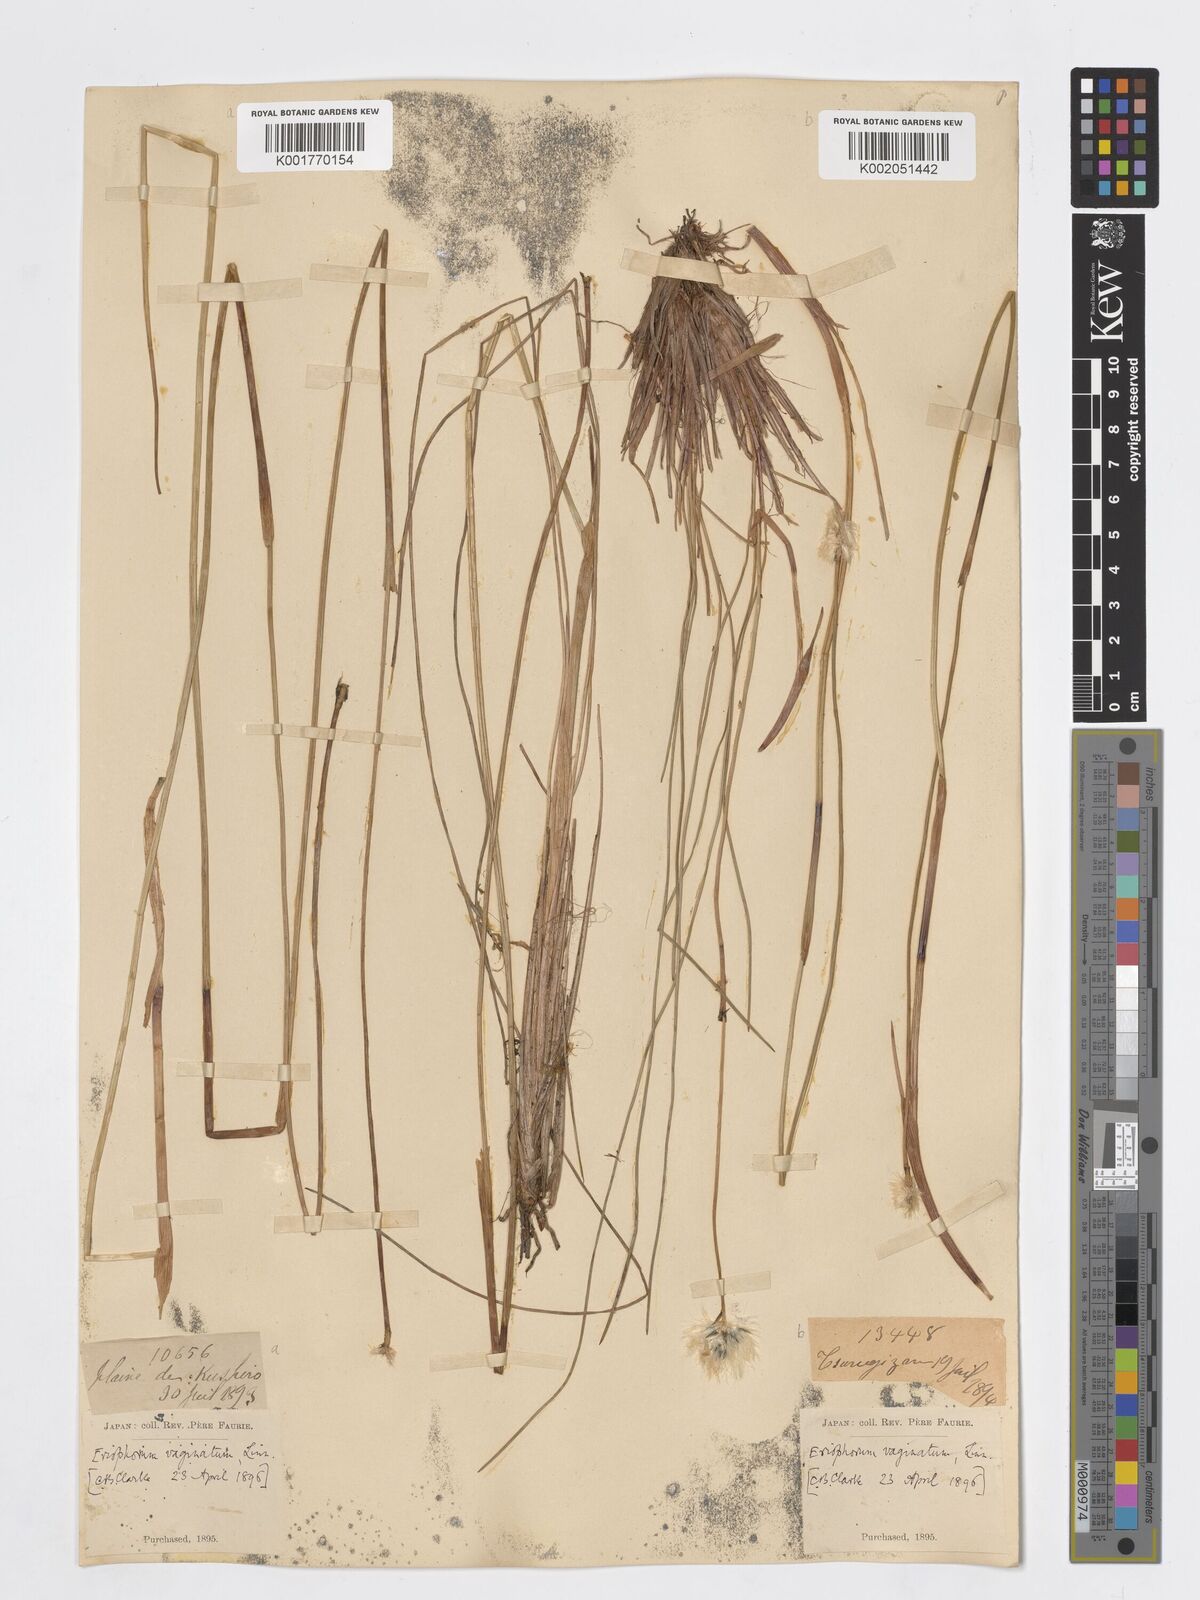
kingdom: Plantae
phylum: Tracheophyta
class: Liliopsida
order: Poales
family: Cyperaceae
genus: Eriophorum
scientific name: Eriophorum vaginatum
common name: Hare's-tail cottongrass
